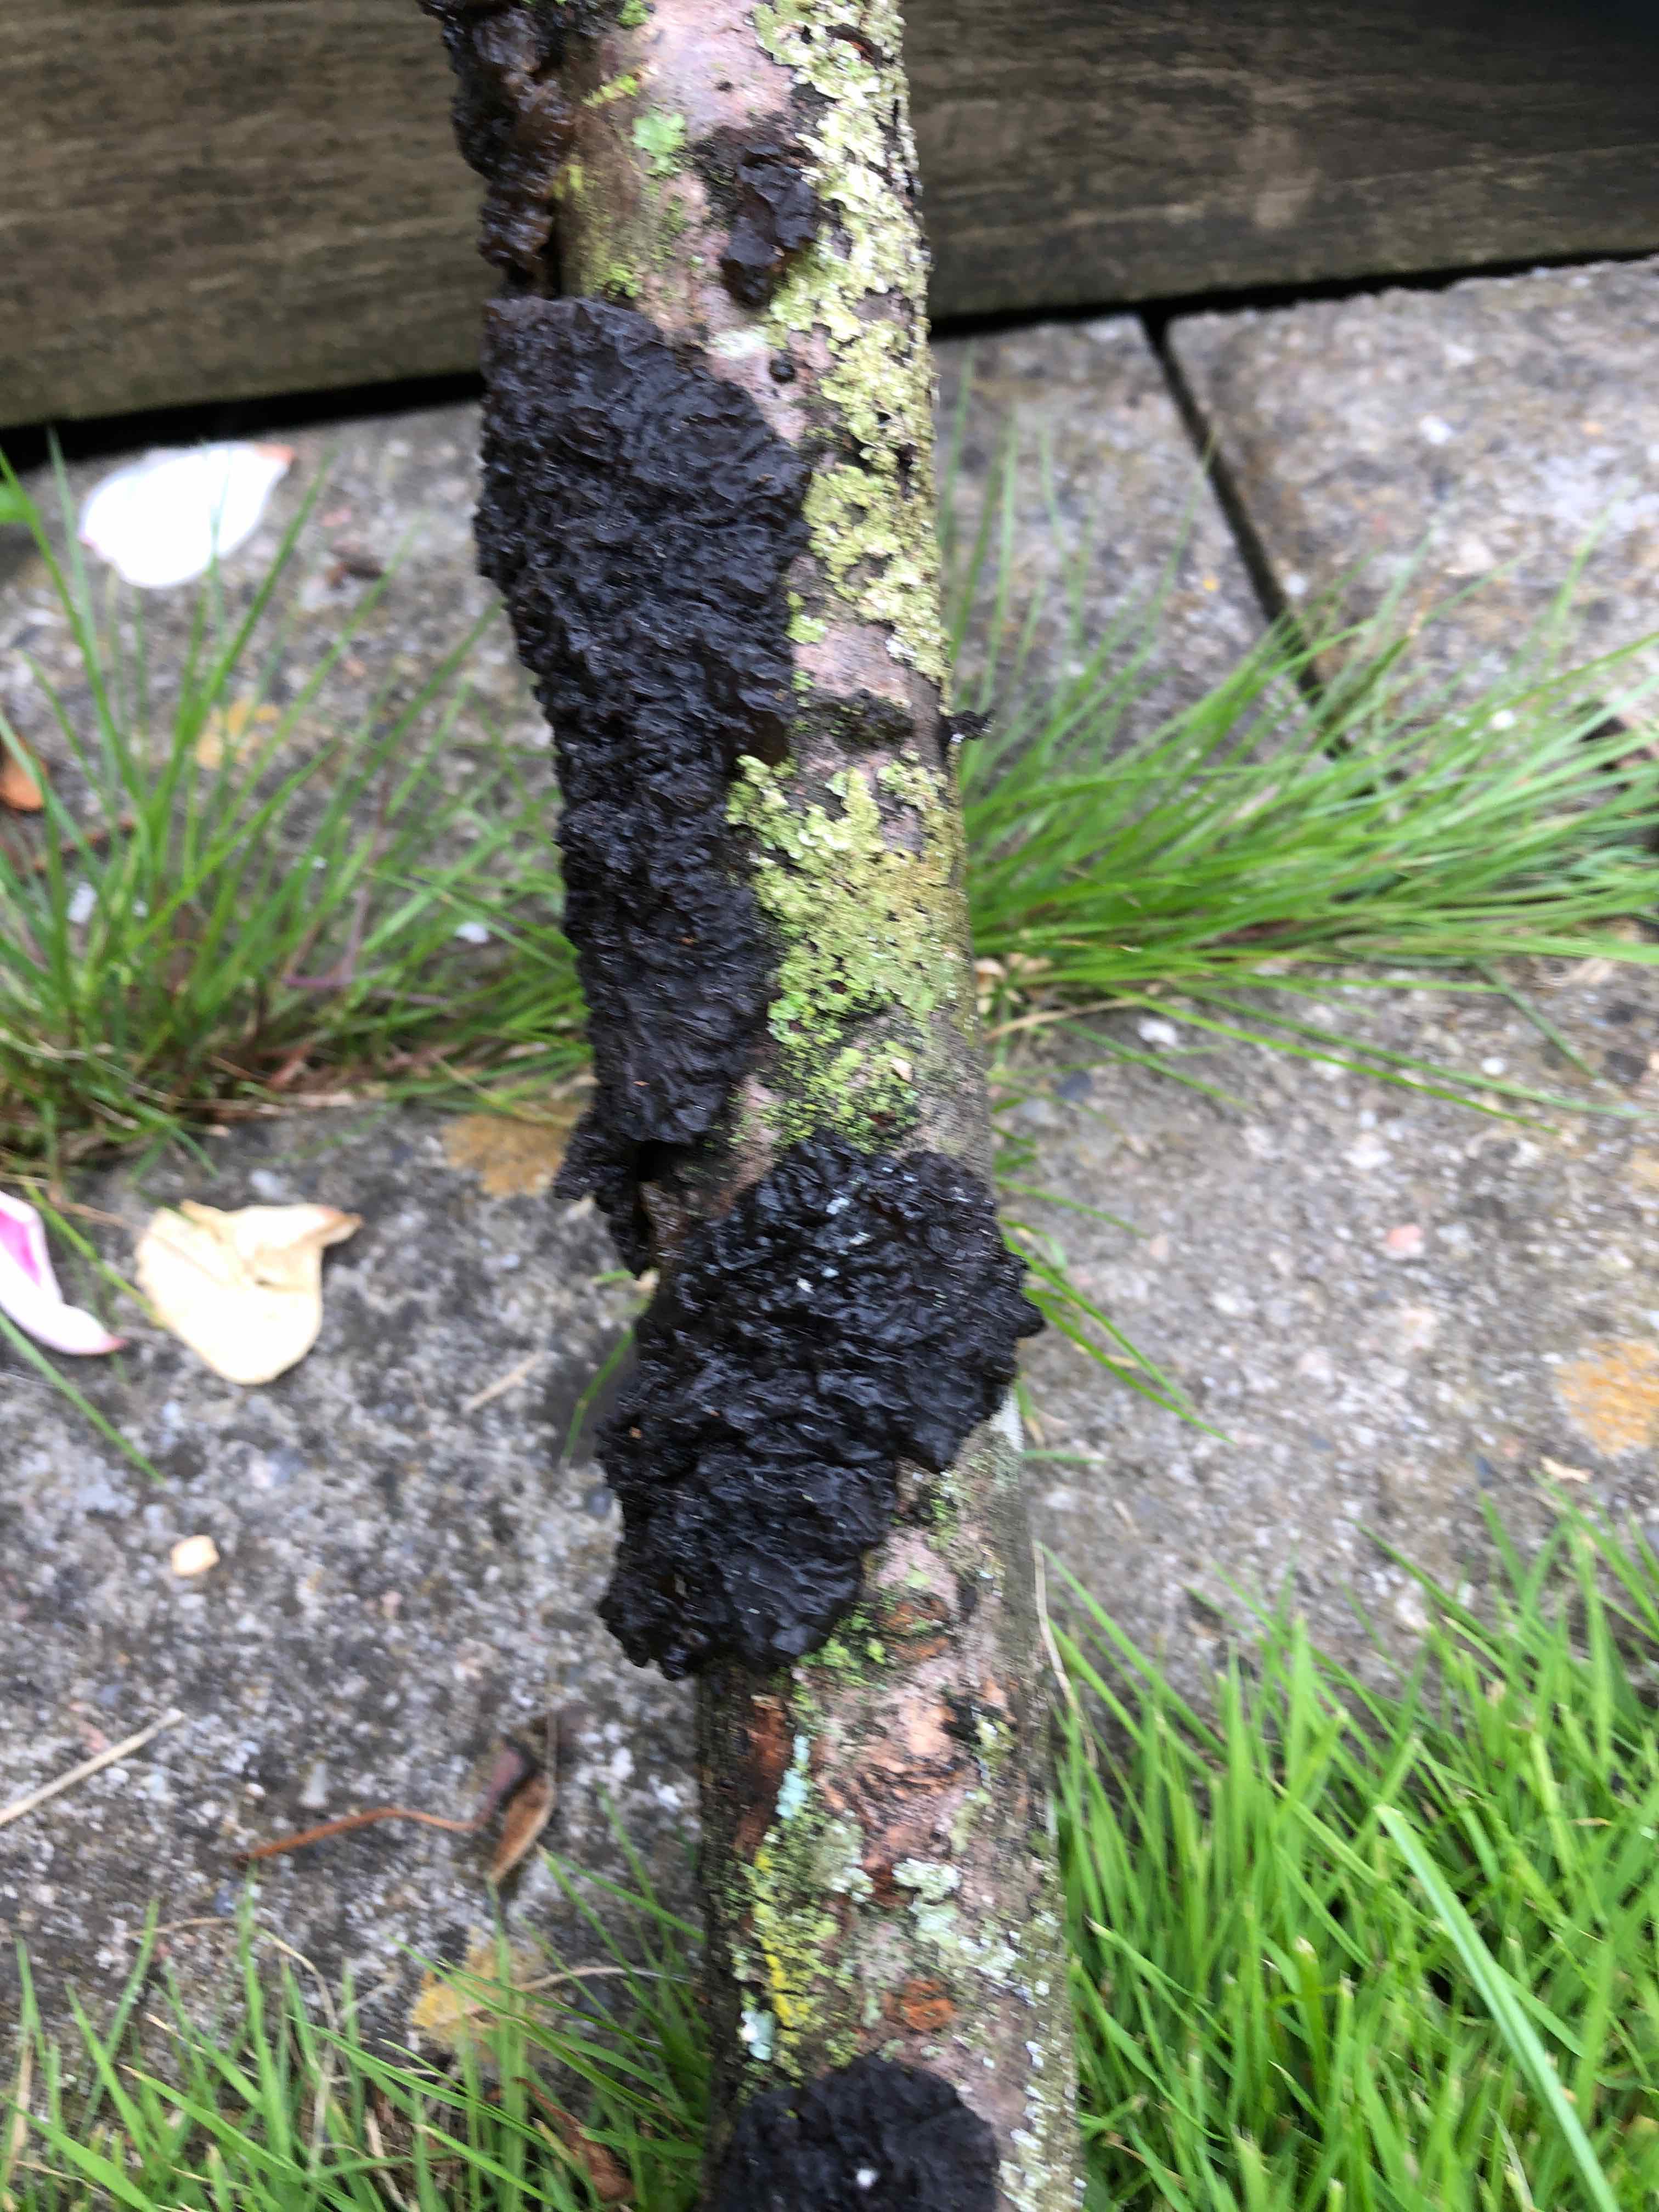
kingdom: Fungi
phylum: Basidiomycota
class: Agaricomycetes
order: Auriculariales
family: Auriculariaceae
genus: Exidia
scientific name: Exidia nigricans
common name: almindelig bævretop
